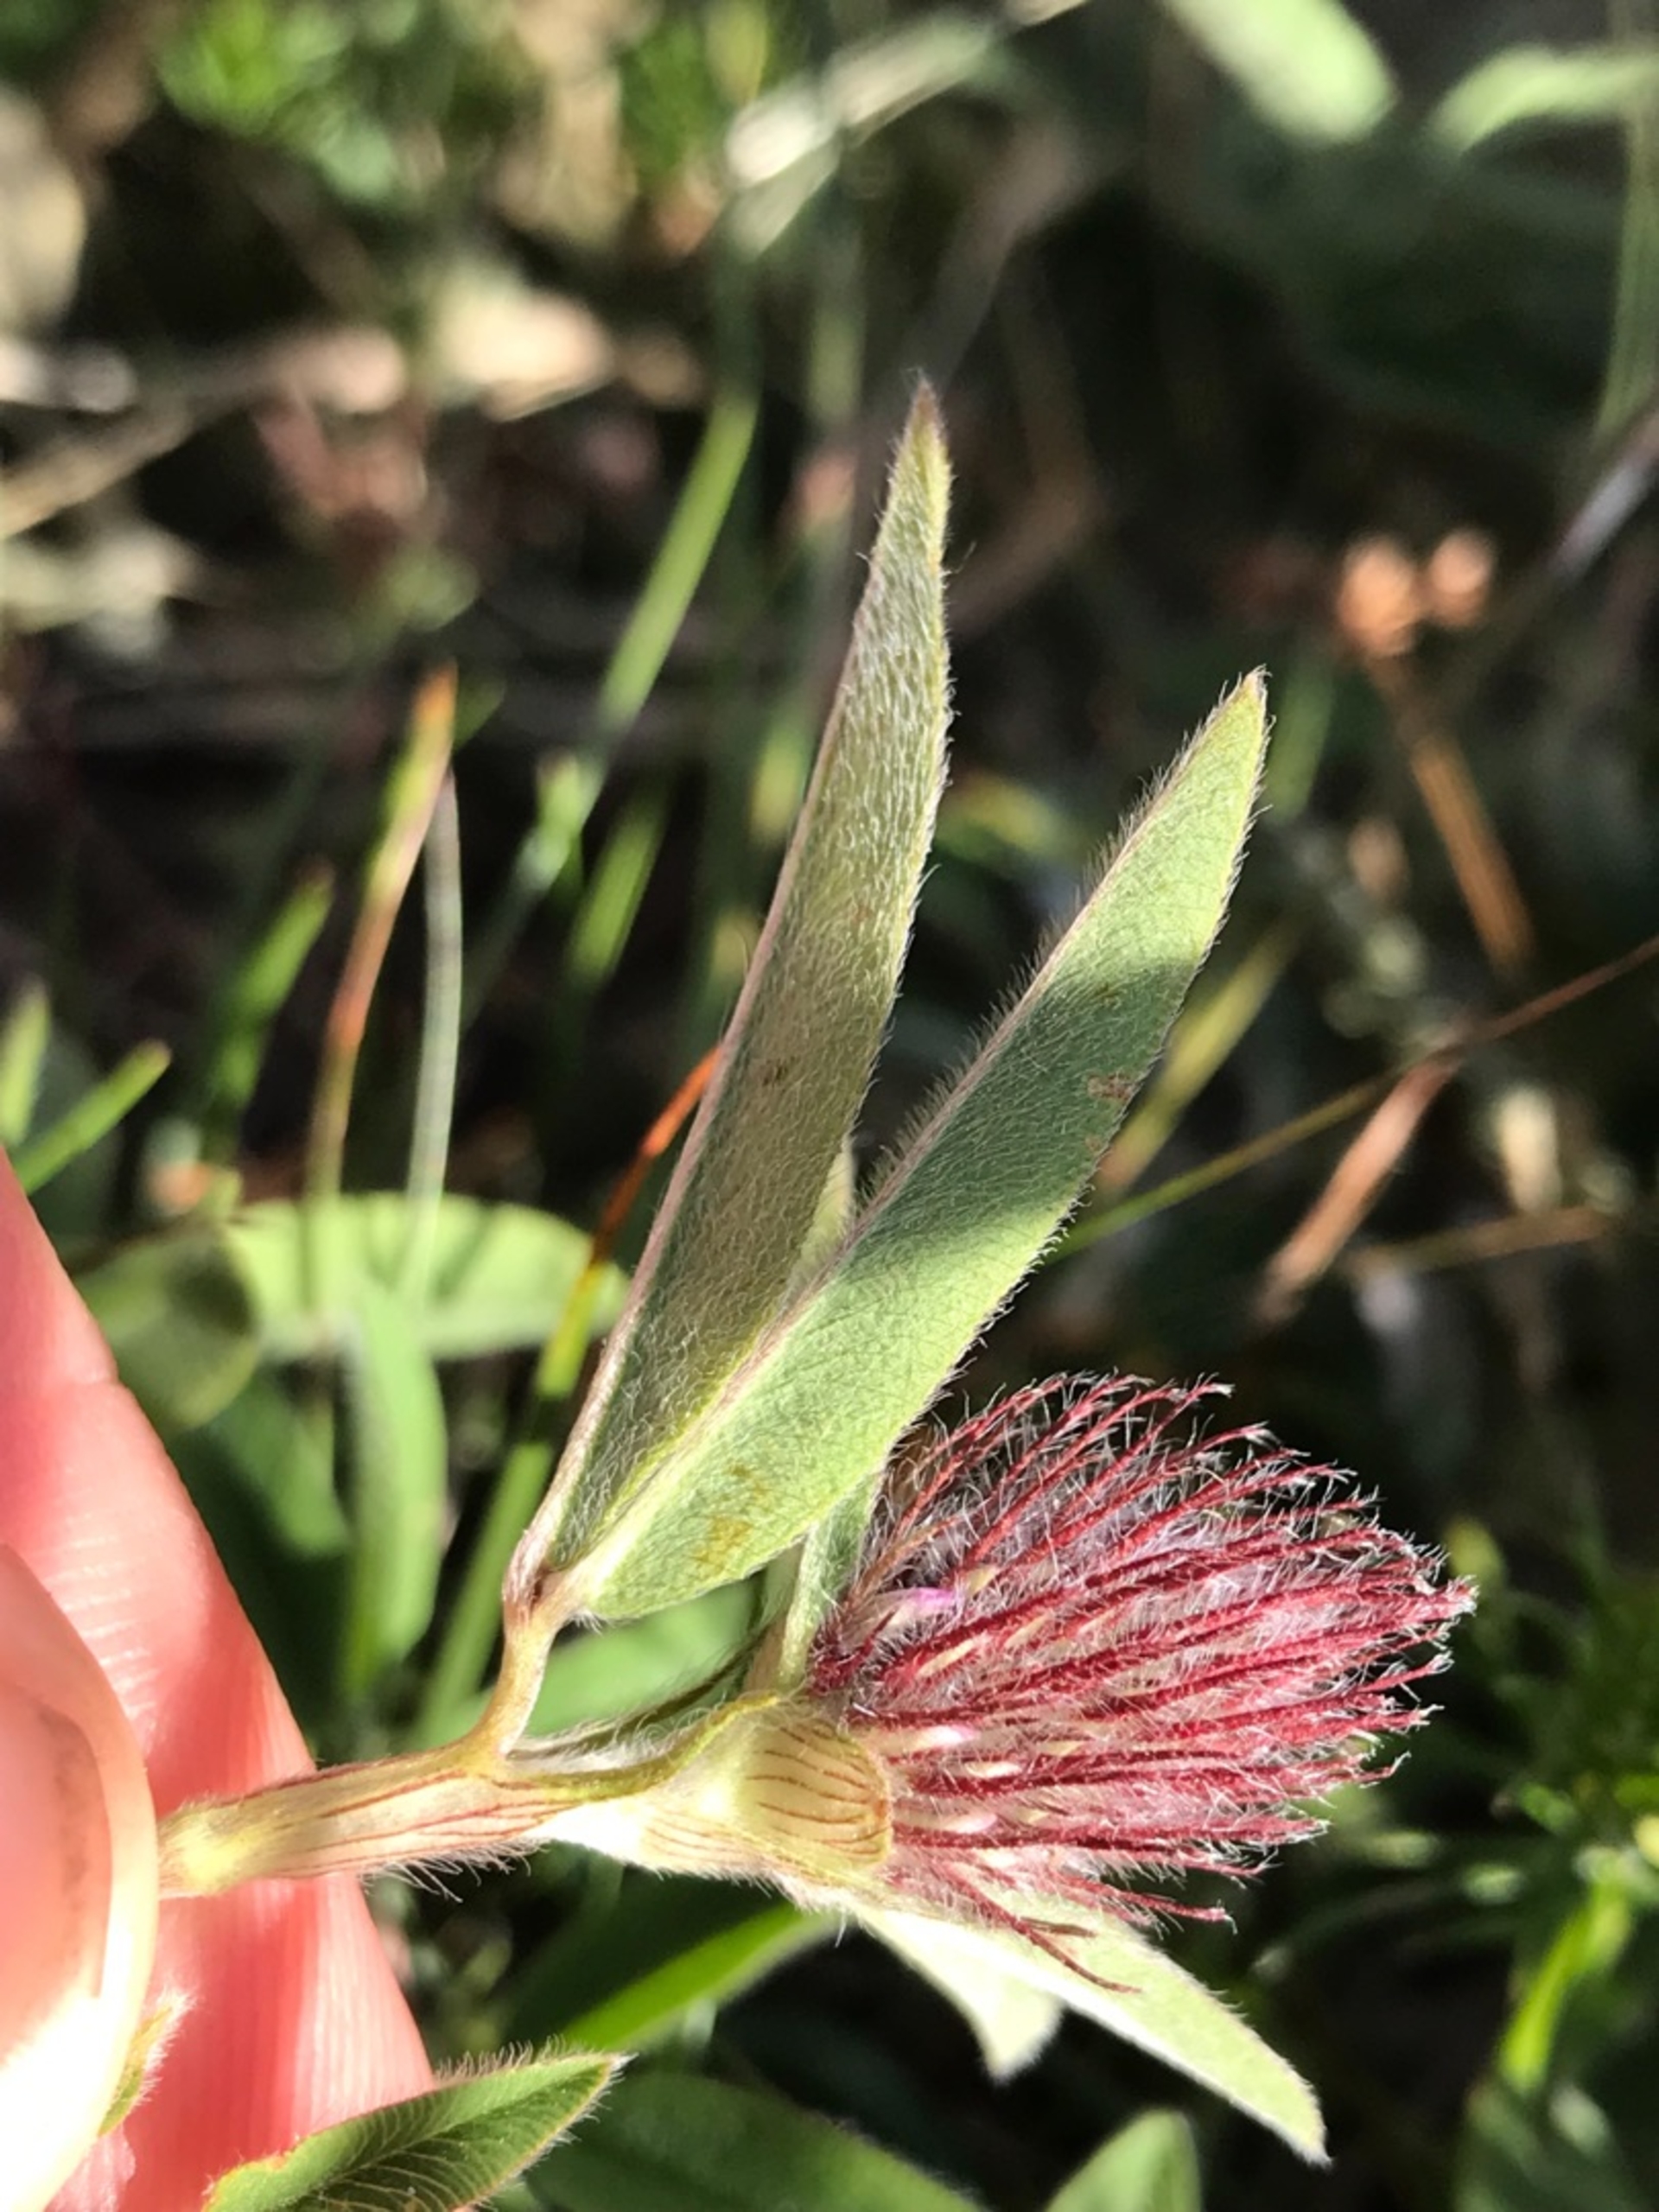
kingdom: Plantae
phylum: Tracheophyta
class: Magnoliopsida
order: Fabales
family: Fabaceae
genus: Trifolium
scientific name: Trifolium alpestre
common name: Skov-kløver
